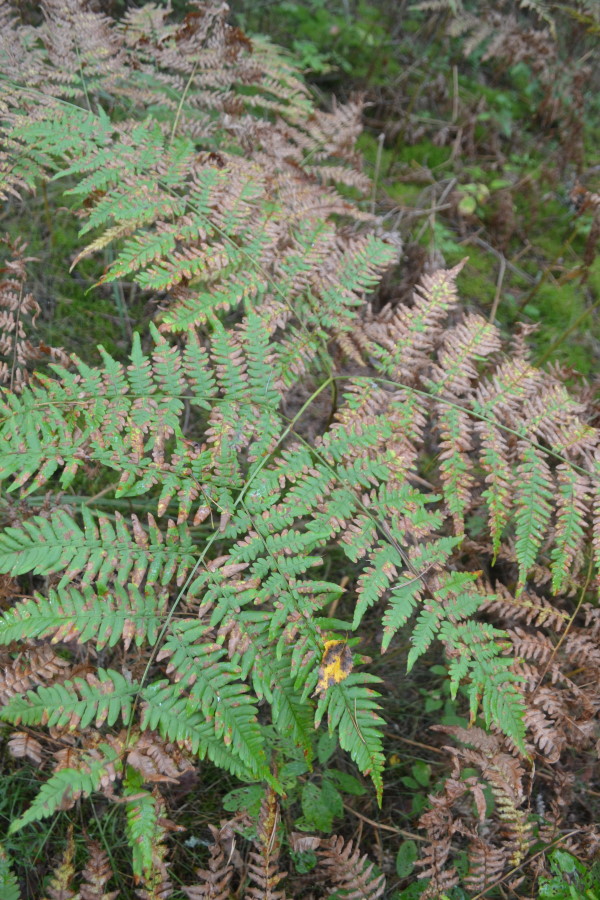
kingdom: Plantae
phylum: Tracheophyta
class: Polypodiopsida
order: Polypodiales
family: Dennstaedtiaceae
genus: Pteridium
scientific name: Pteridium aquilinum
